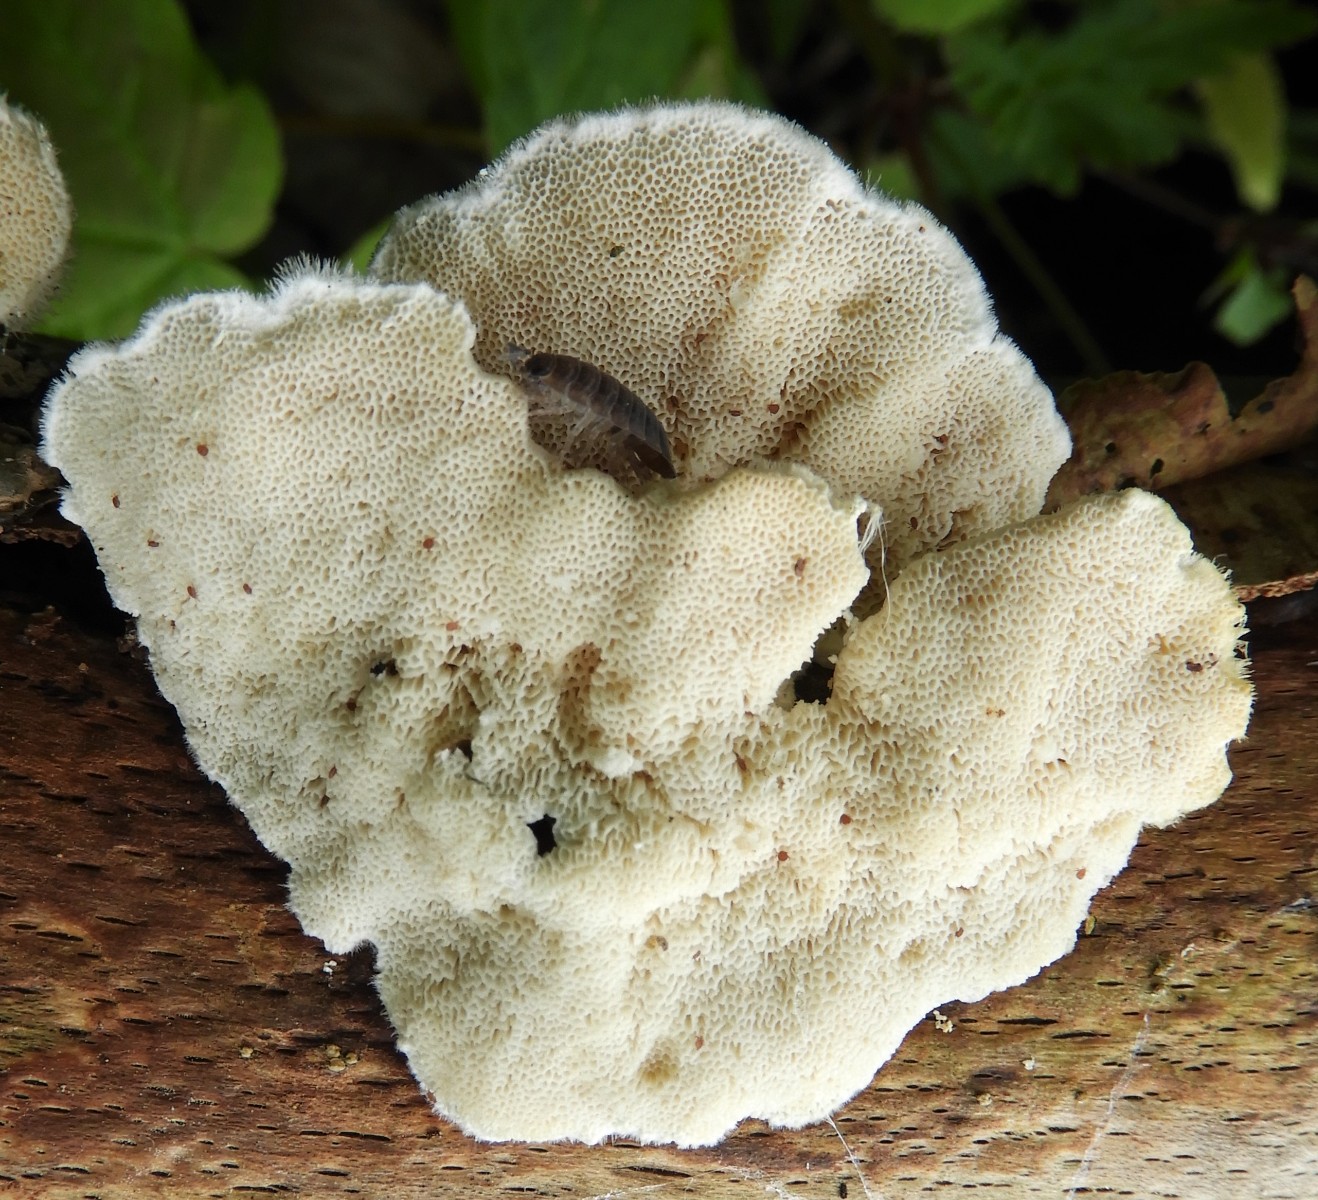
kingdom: Fungi
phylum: Basidiomycota
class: Agaricomycetes
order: Polyporales
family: Polyporaceae
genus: Trametes
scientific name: Trametes hirsuta
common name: håret læderporesvamp
